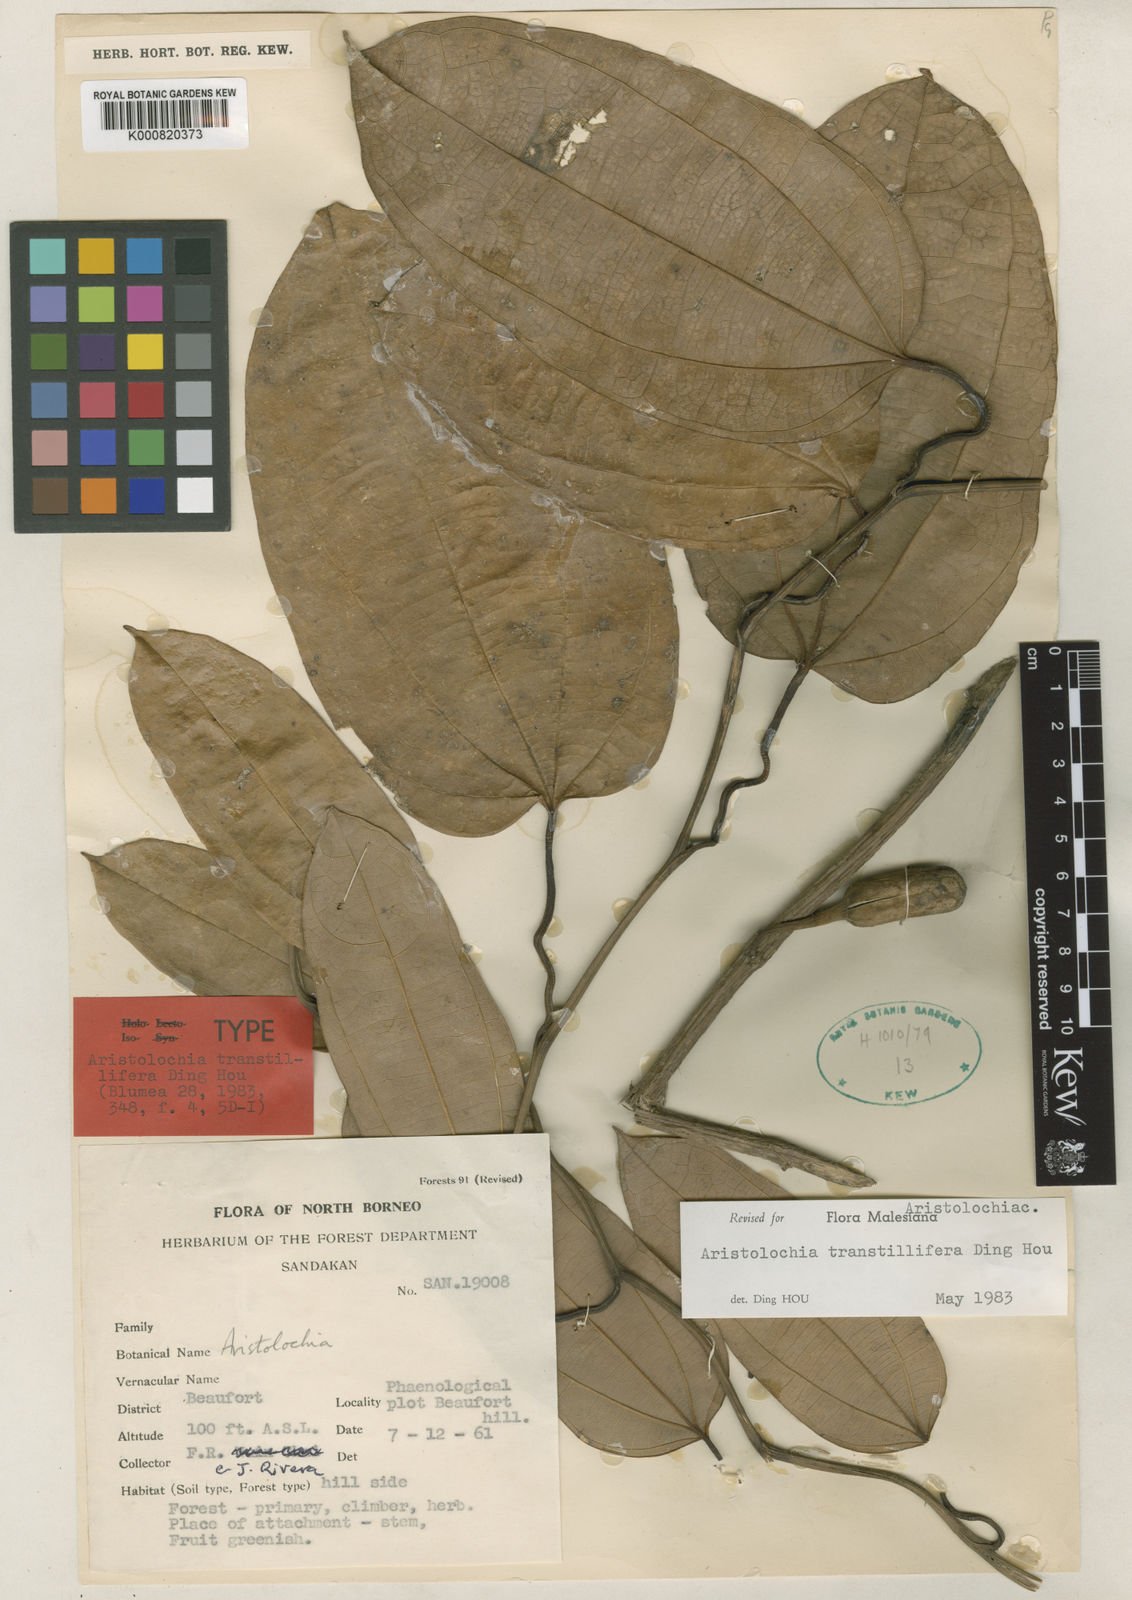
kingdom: Plantae
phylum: Tracheophyta
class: Magnoliopsida
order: Piperales
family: Aristolochiaceae
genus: Aristolochia
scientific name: Aristolochia transtillifera
